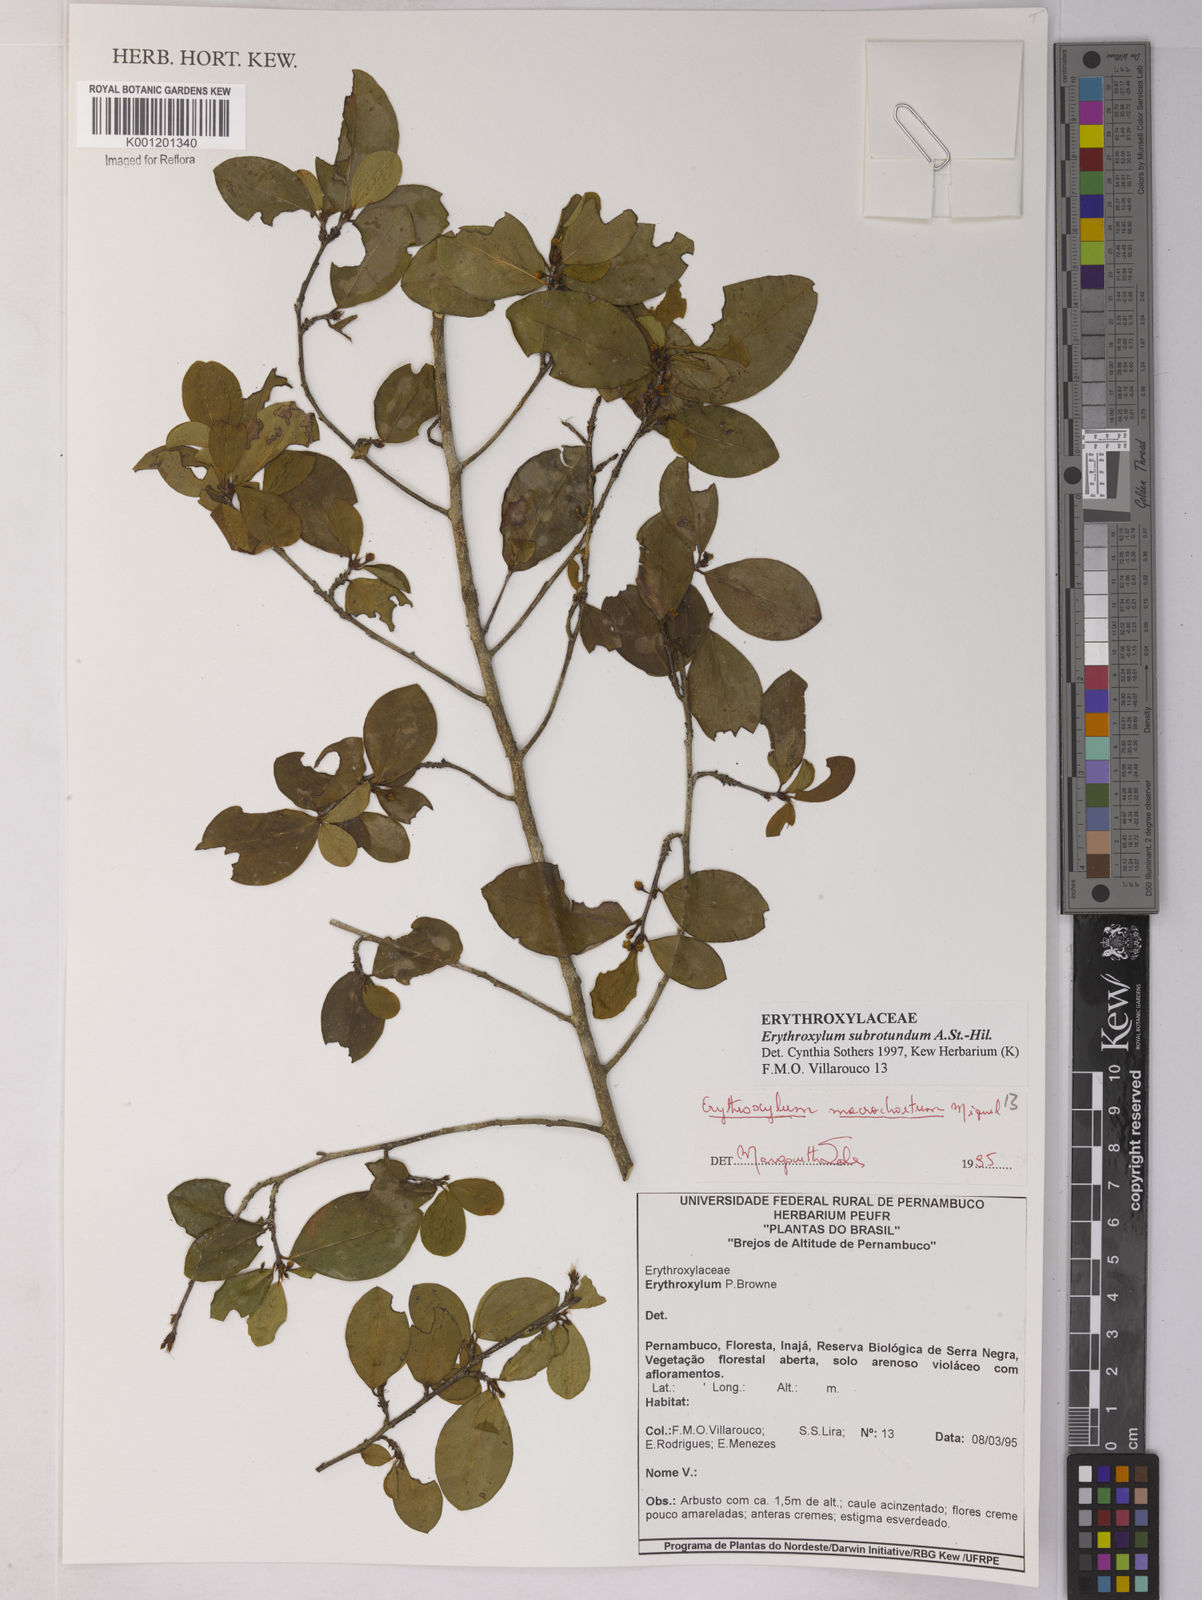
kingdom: Plantae
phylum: Tracheophyta
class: Magnoliopsida
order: Malpighiales
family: Erythroxylaceae
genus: Erythroxylum
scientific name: Erythroxylum subrotundum
